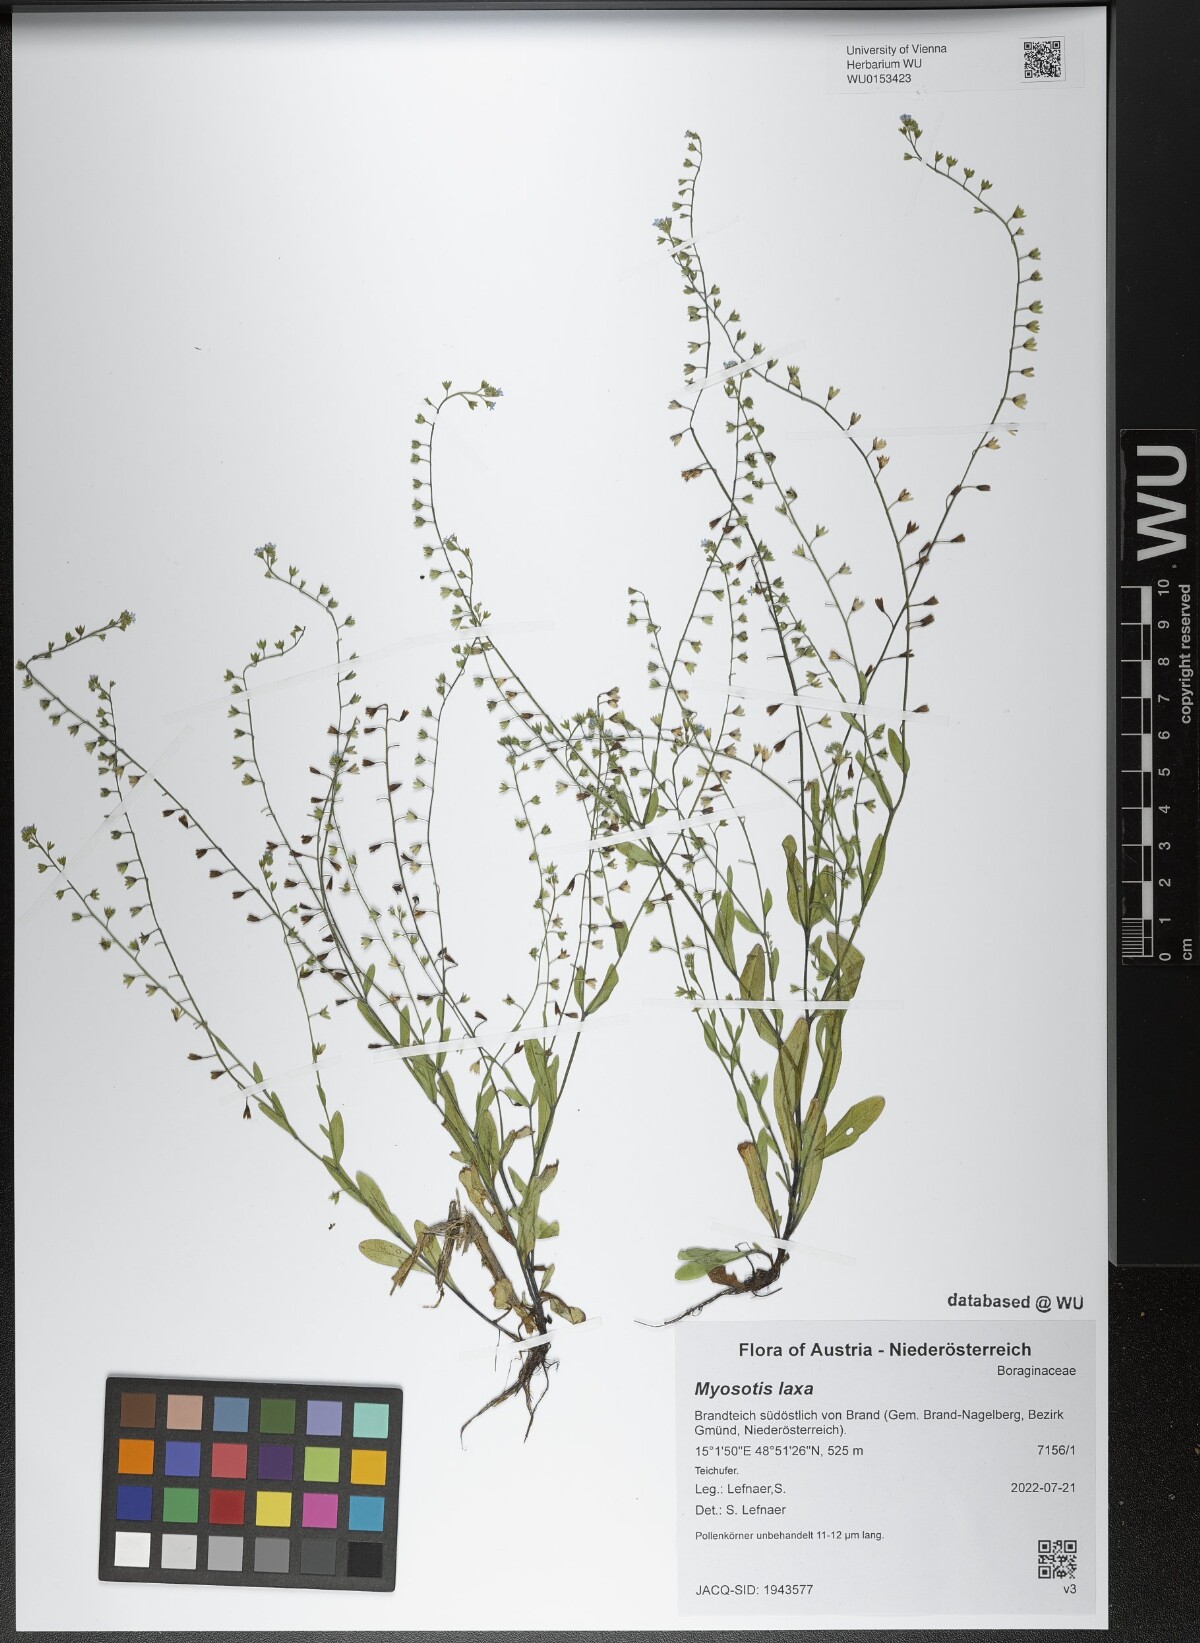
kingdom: Plantae
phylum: Tracheophyta
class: Magnoliopsida
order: Boraginales
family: Boraginaceae
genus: Myosotis
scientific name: Myosotis laxa
